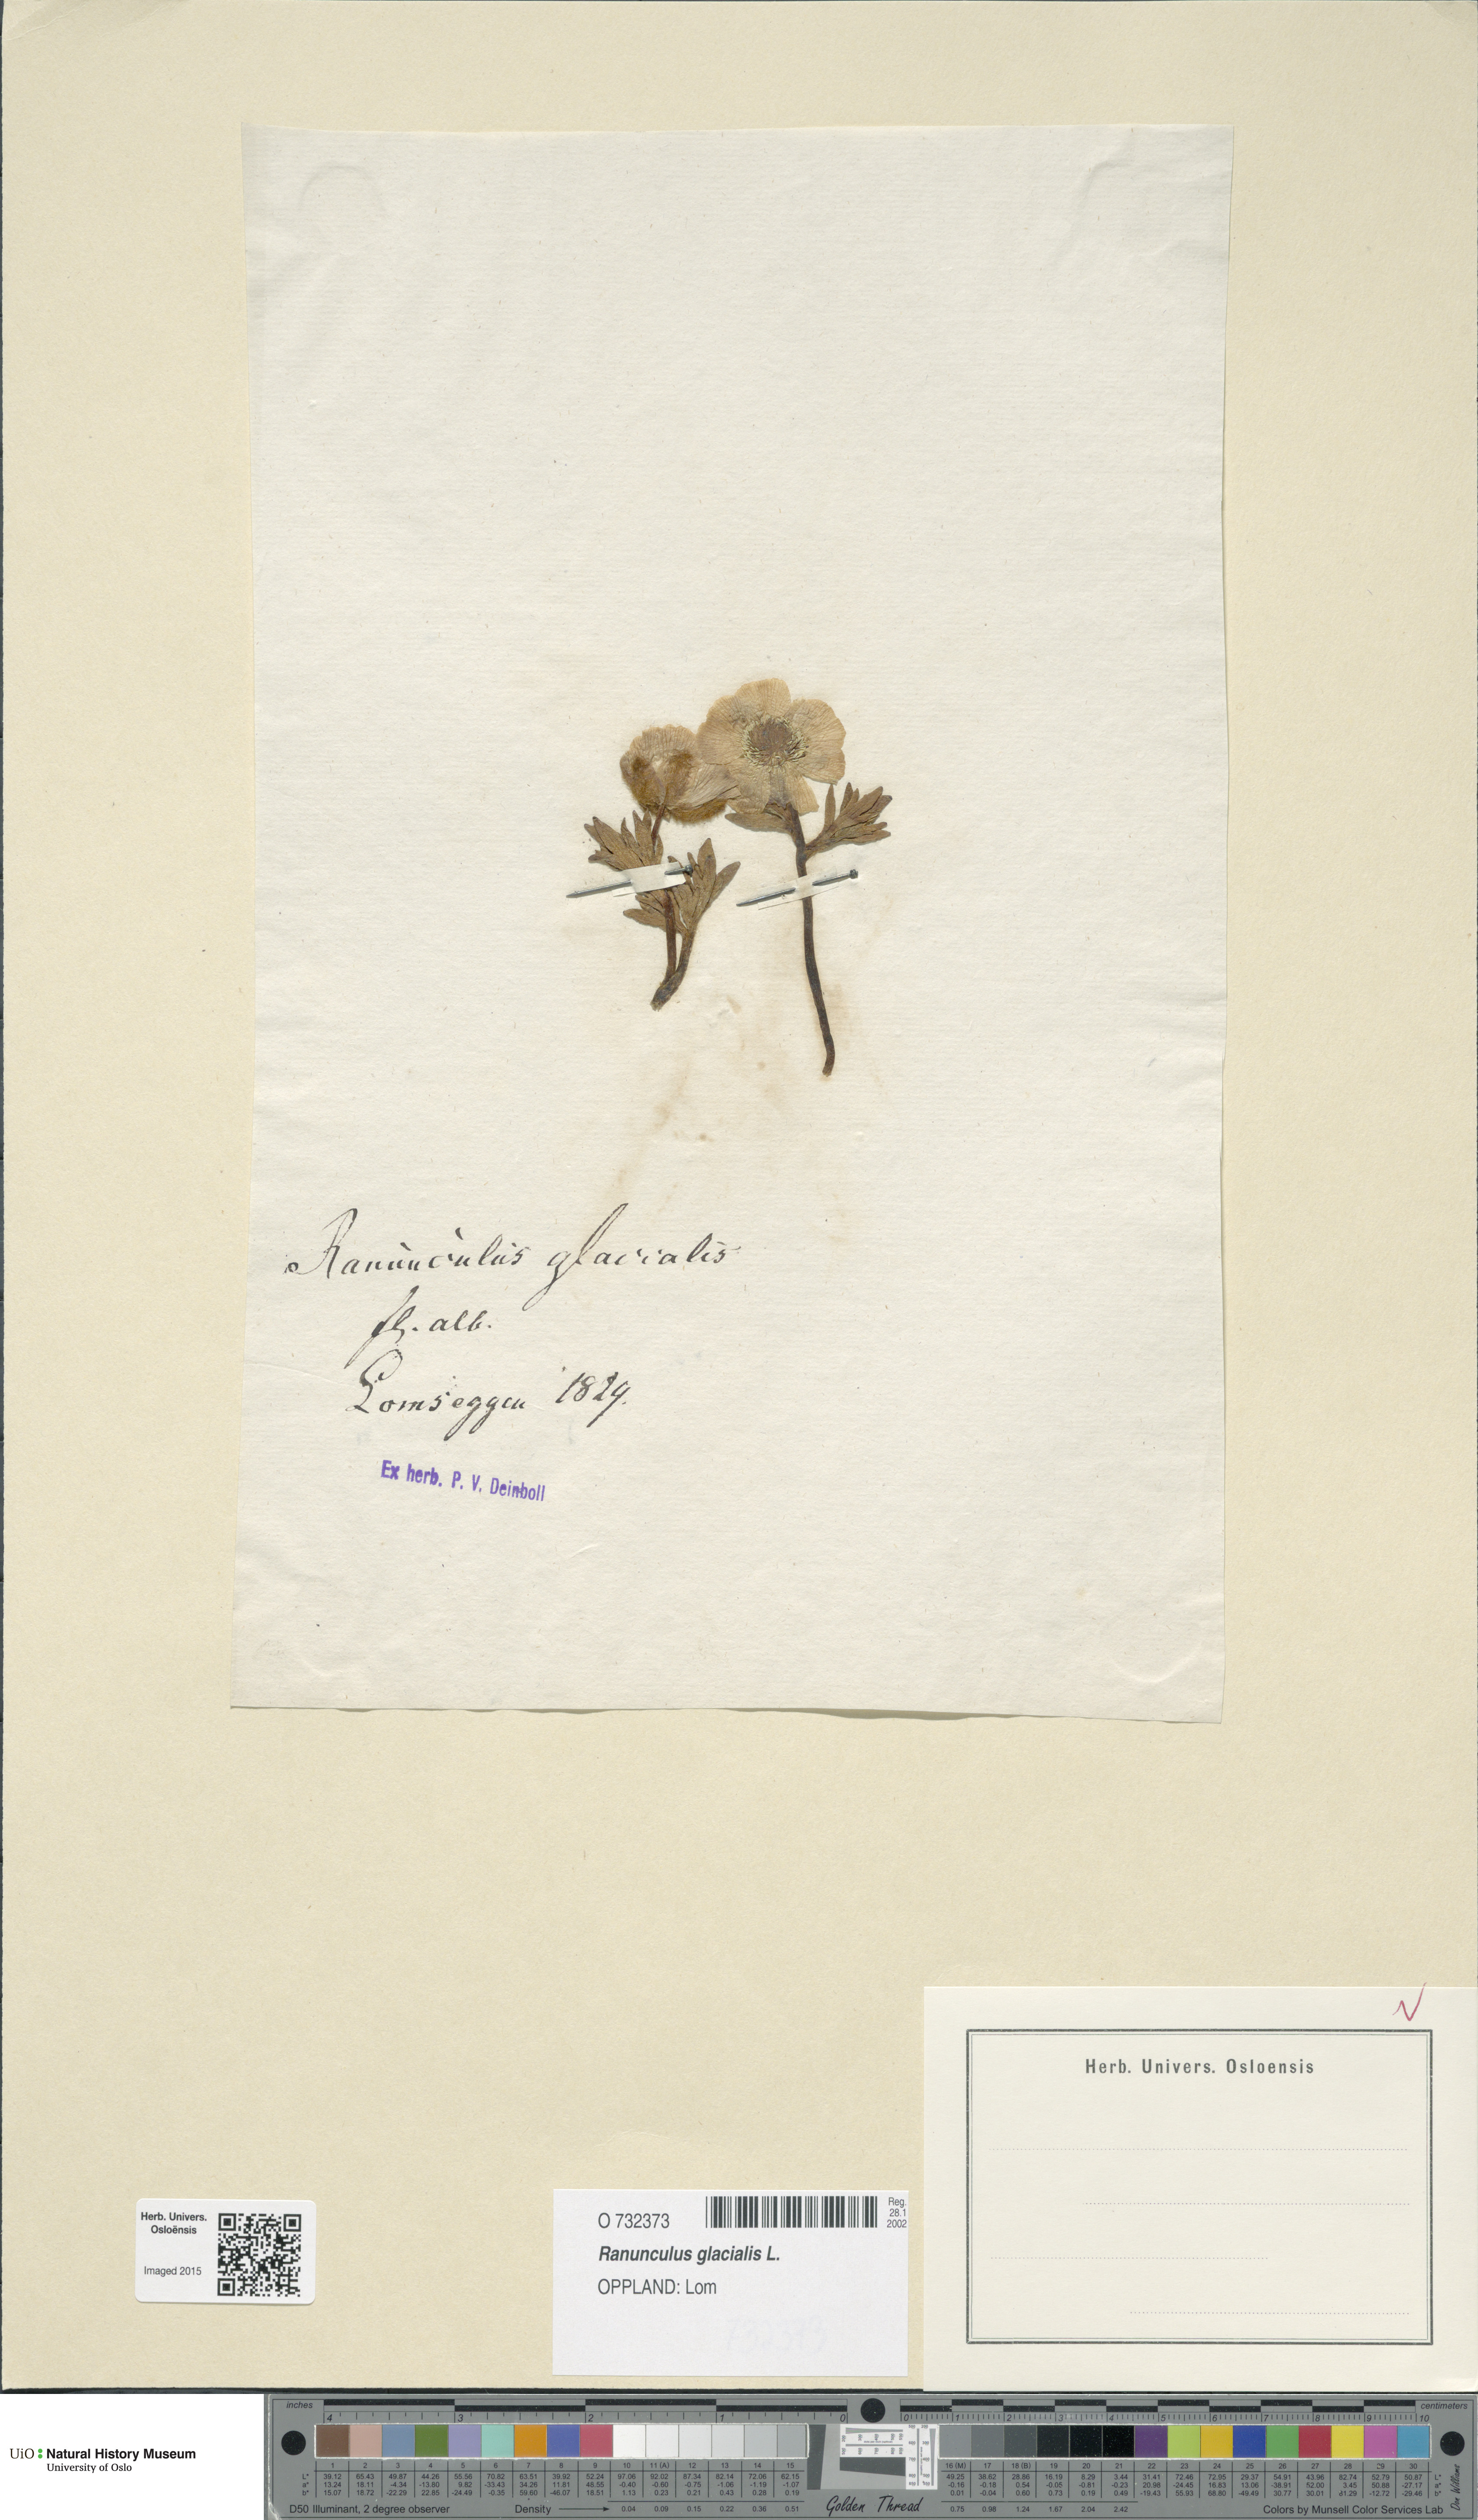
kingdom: Plantae
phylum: Tracheophyta
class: Magnoliopsida
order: Ranunculales
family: Ranunculaceae
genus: Ranunculus
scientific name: Ranunculus glacialis
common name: Glacier buttercup
